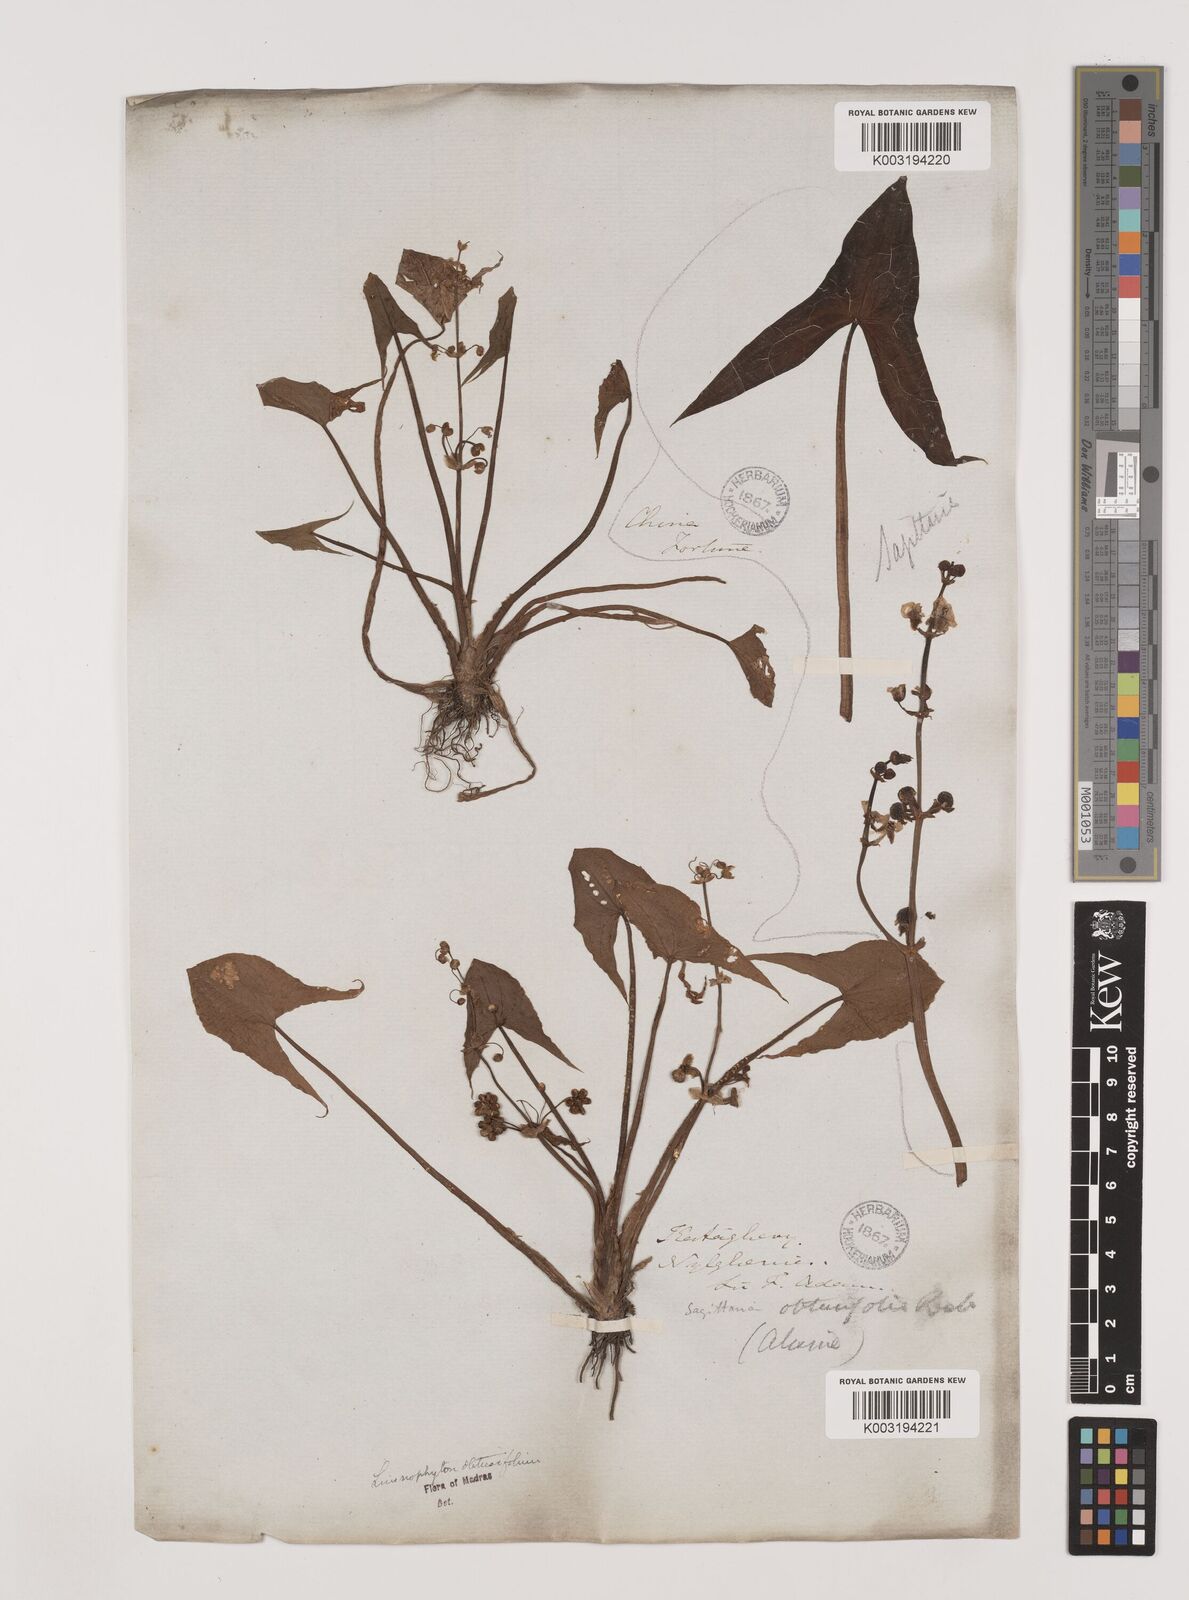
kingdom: Plantae
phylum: Tracheophyta
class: Liliopsida
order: Alismatales
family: Alismataceae
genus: Limnophyton
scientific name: Limnophyton obtusifolium
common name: Arrow head
